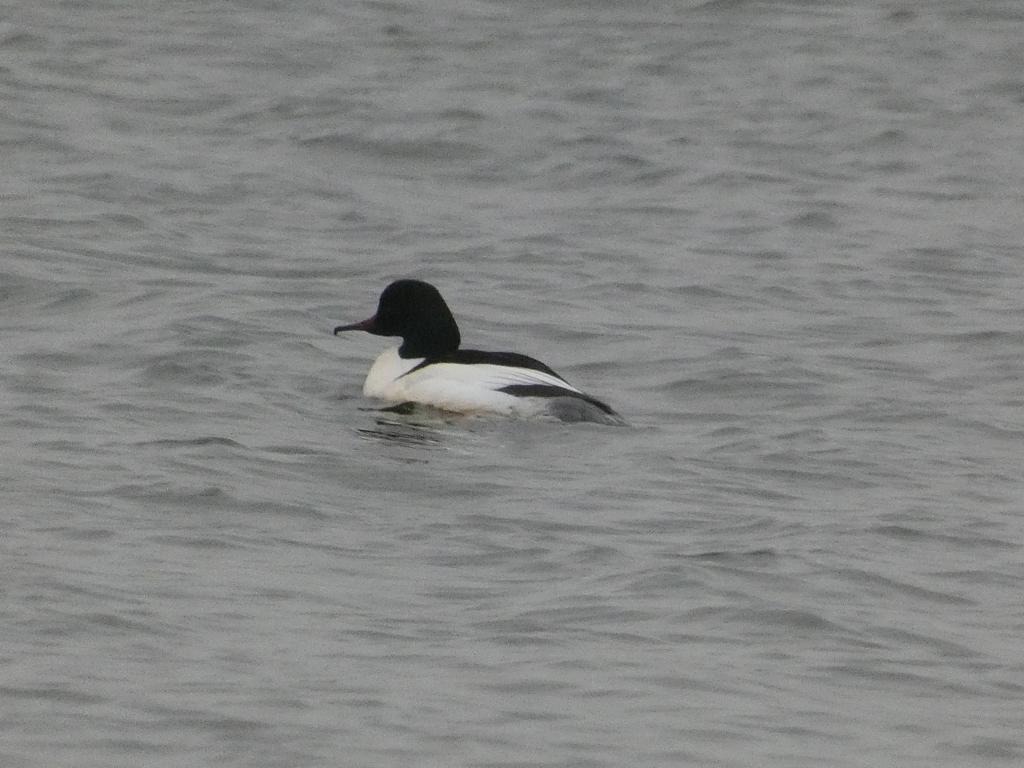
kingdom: Animalia
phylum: Chordata
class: Aves
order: Anseriformes
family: Anatidae
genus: Mergus
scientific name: Mergus merganser
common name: Stor skallesluger
